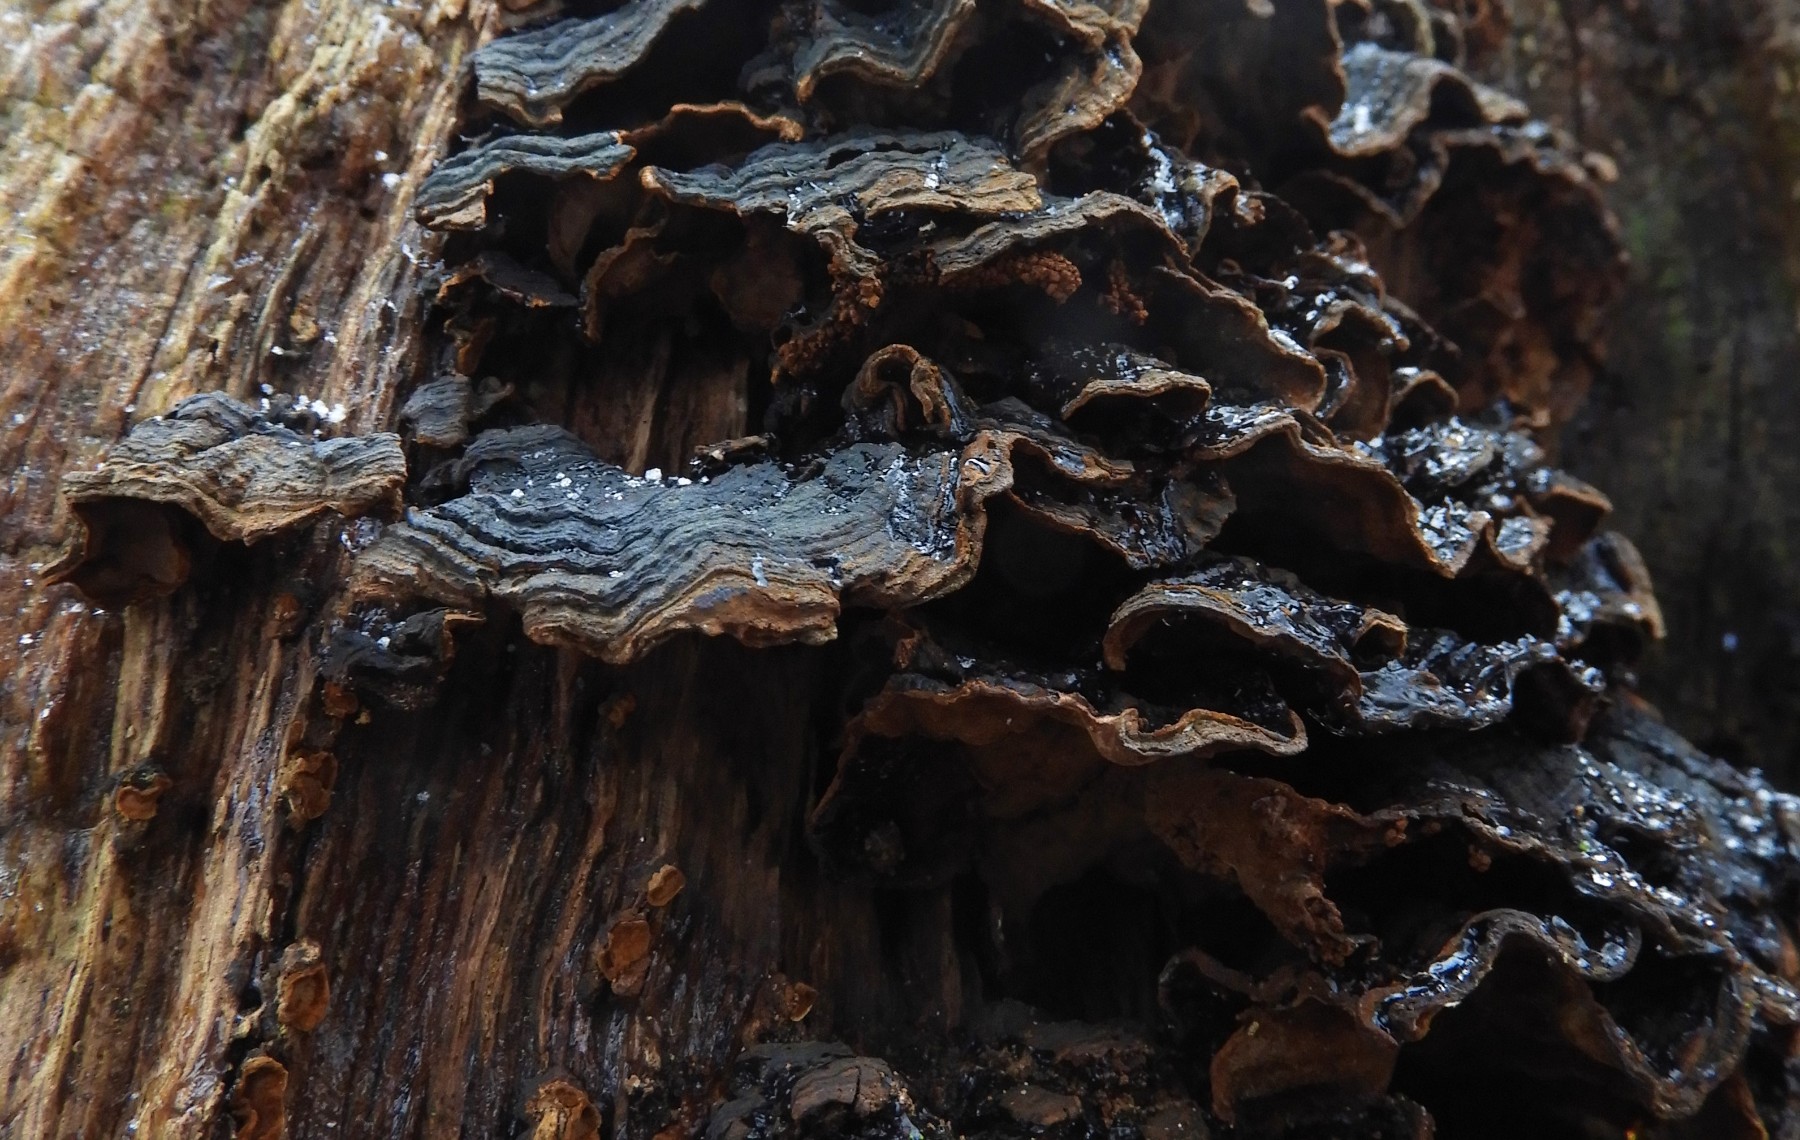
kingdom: Fungi
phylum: Basidiomycota
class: Agaricomycetes
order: Hymenochaetales
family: Hymenochaetaceae
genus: Hymenochaete
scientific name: Hymenochaete rubiginosa
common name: stiv ruslædersvamp
